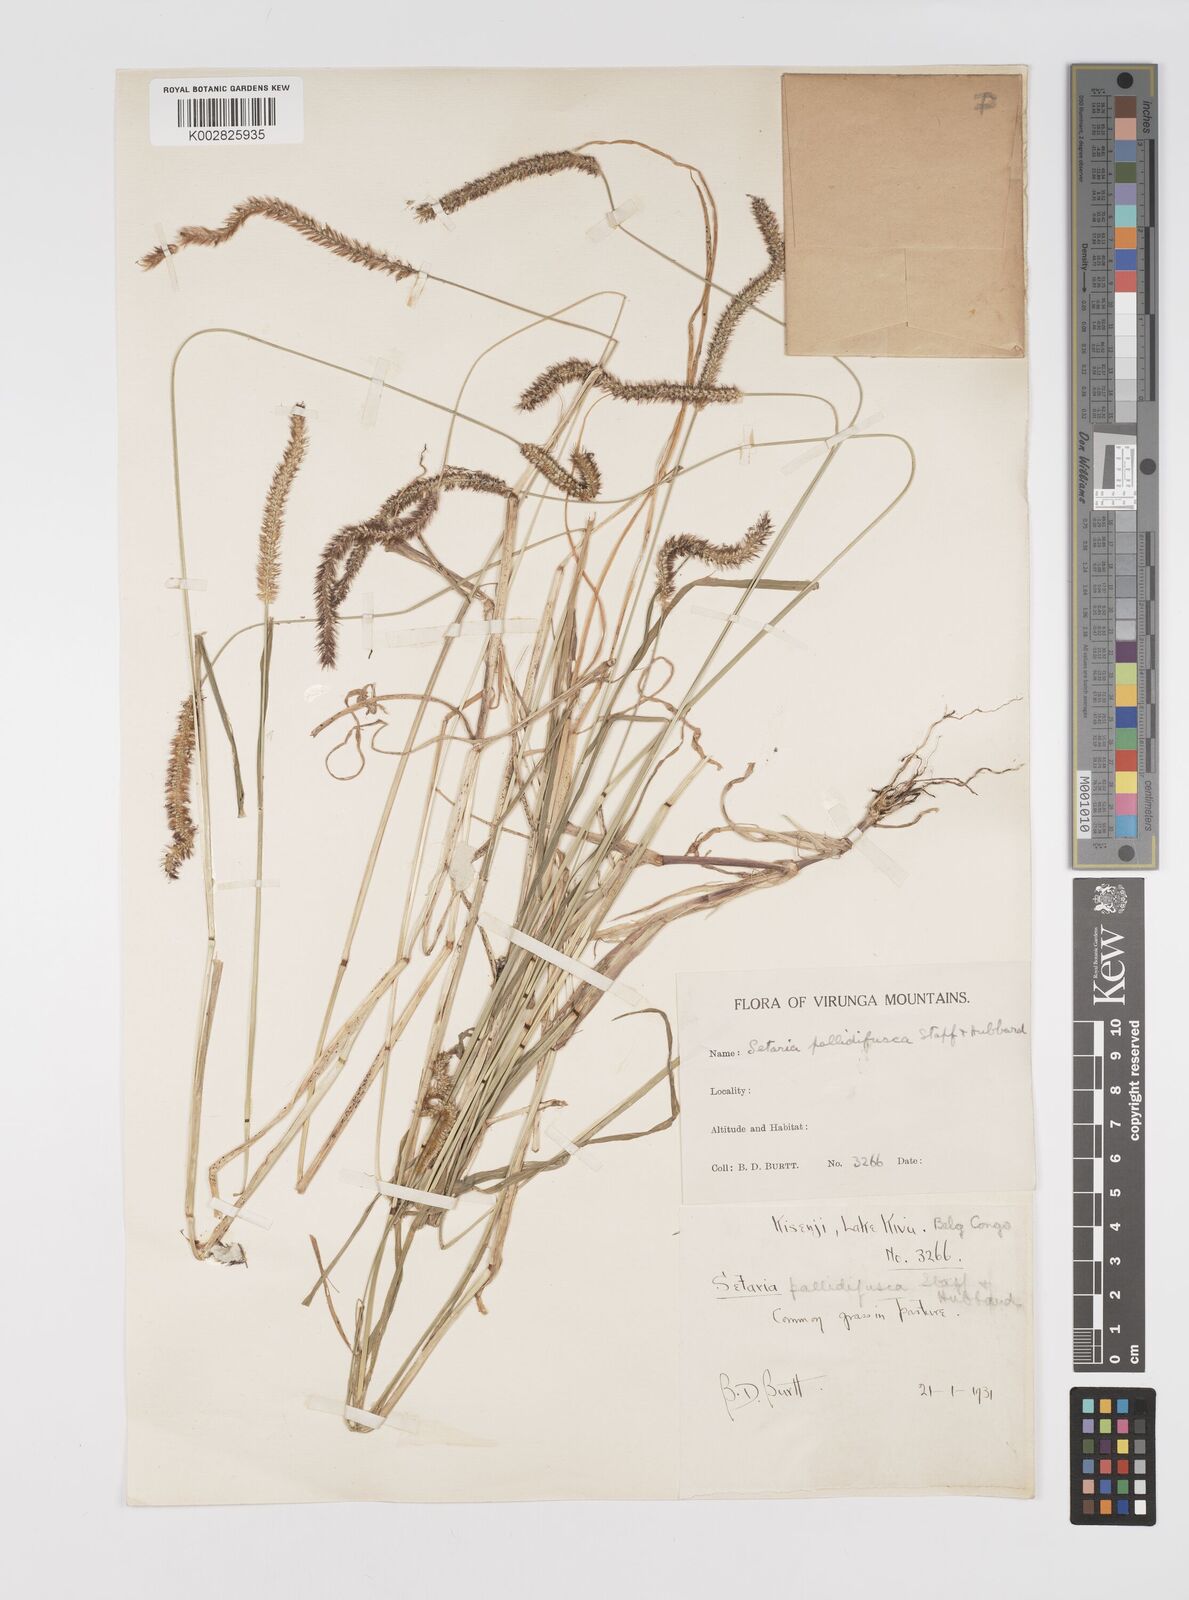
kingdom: Plantae
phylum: Tracheophyta
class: Liliopsida
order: Poales
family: Poaceae
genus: Setaria
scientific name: Setaria pumila
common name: Yellow bristle-grass
